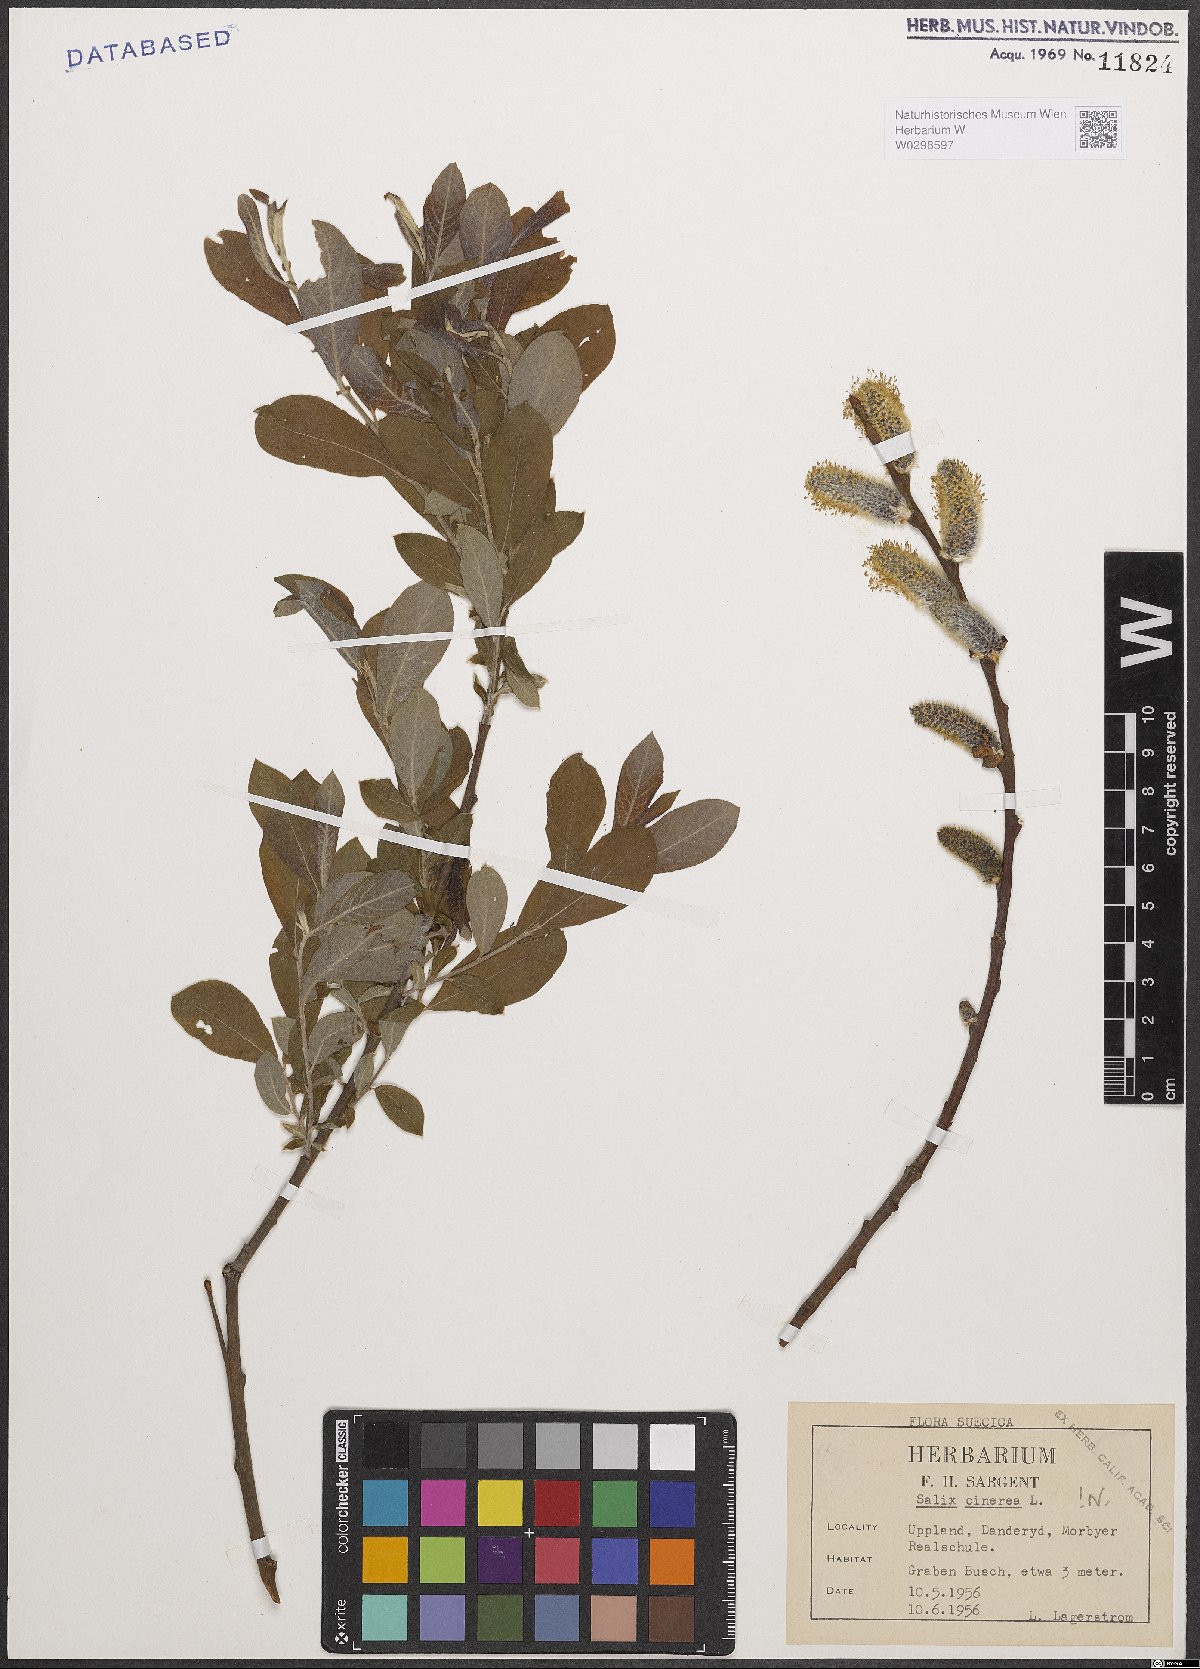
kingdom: Plantae
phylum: Tracheophyta
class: Magnoliopsida
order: Malpighiales
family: Salicaceae
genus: Salix
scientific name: Salix cinerea
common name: Common sallow
